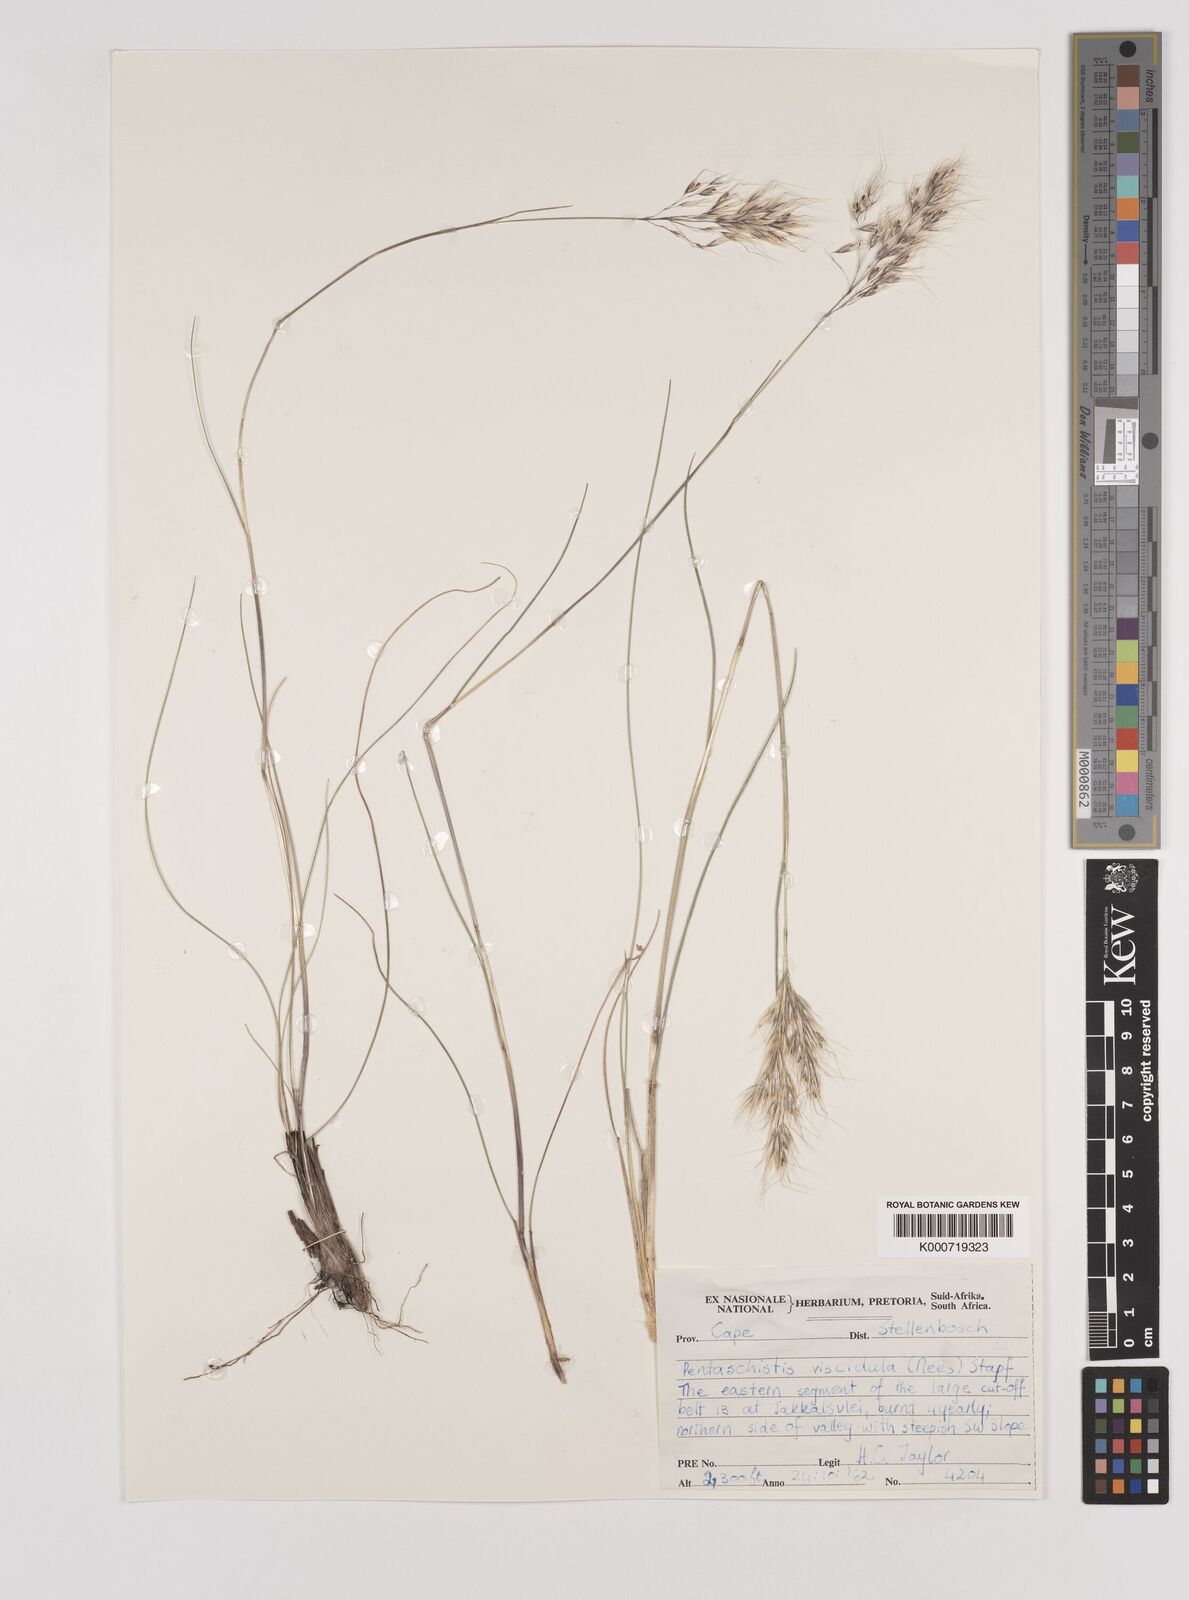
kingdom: Plantae
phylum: Tracheophyta
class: Liliopsida
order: Poales
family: Poaceae
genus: Pentameris
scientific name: Pentameris viscidula
